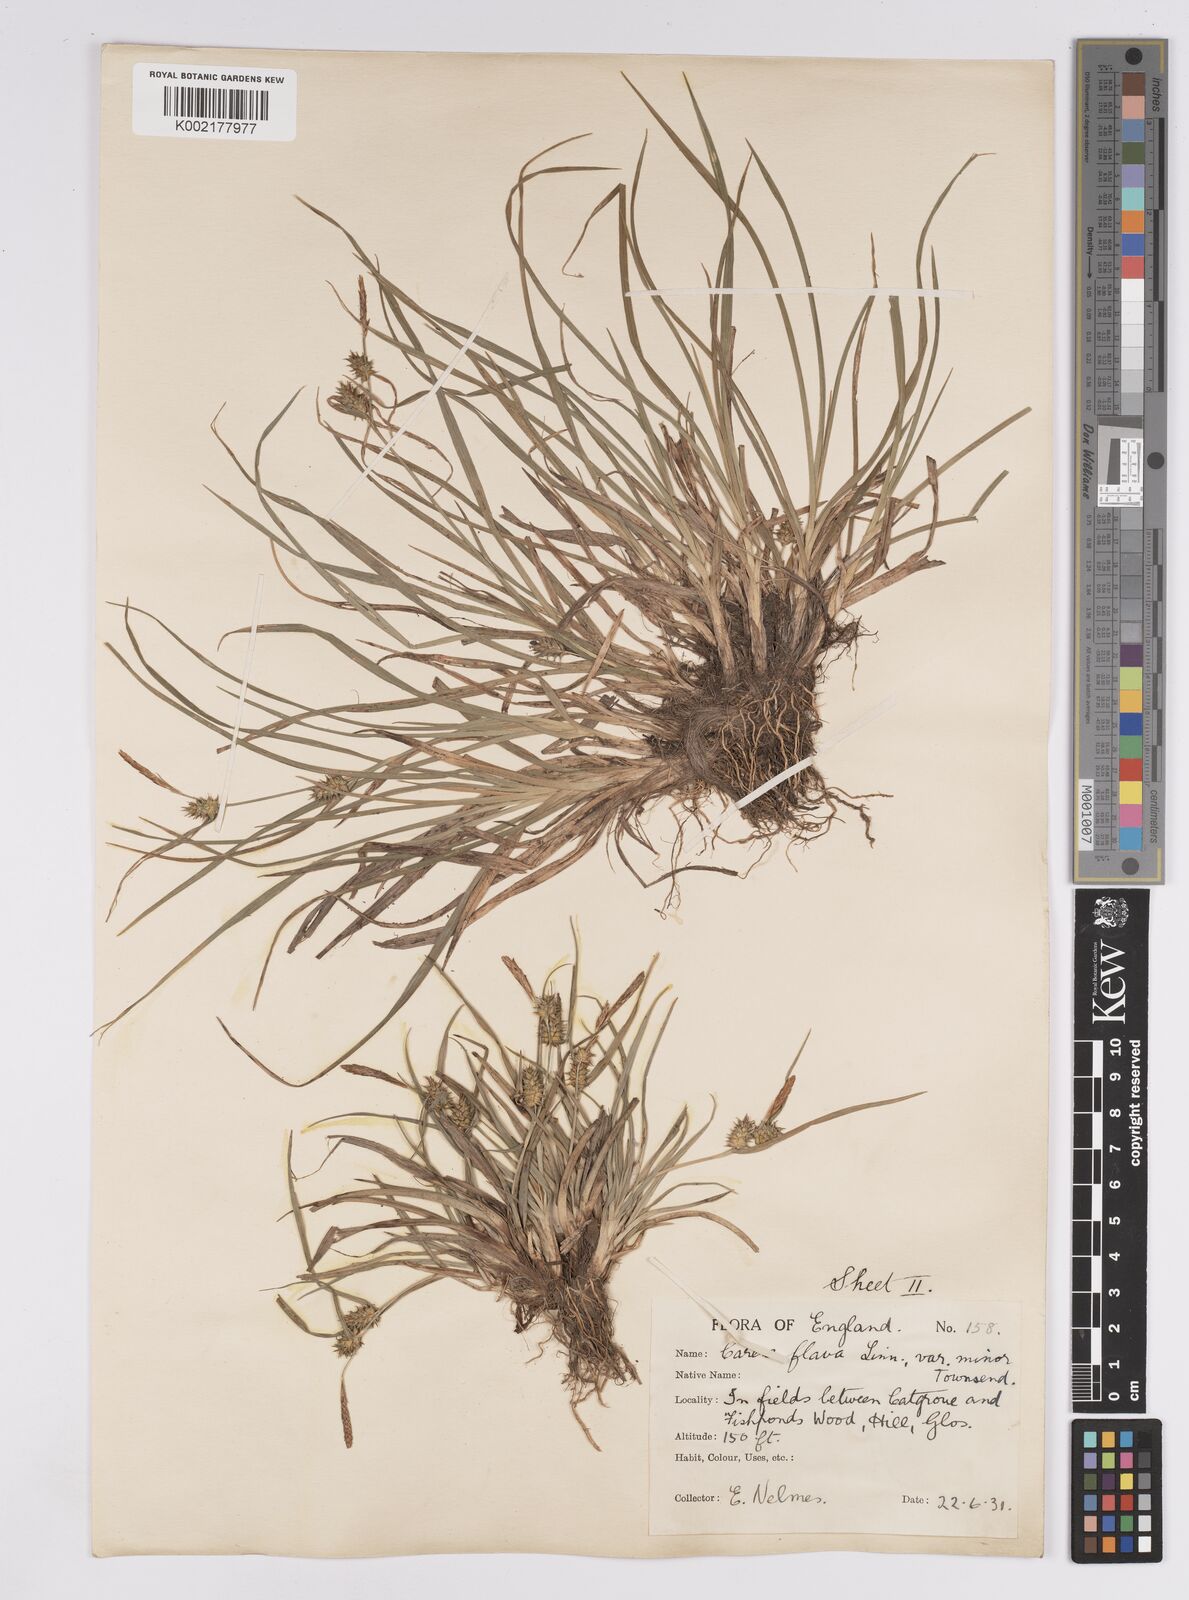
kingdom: Plantae
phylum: Tracheophyta
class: Liliopsida
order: Poales
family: Cyperaceae
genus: Carex
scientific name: Carex demissa
